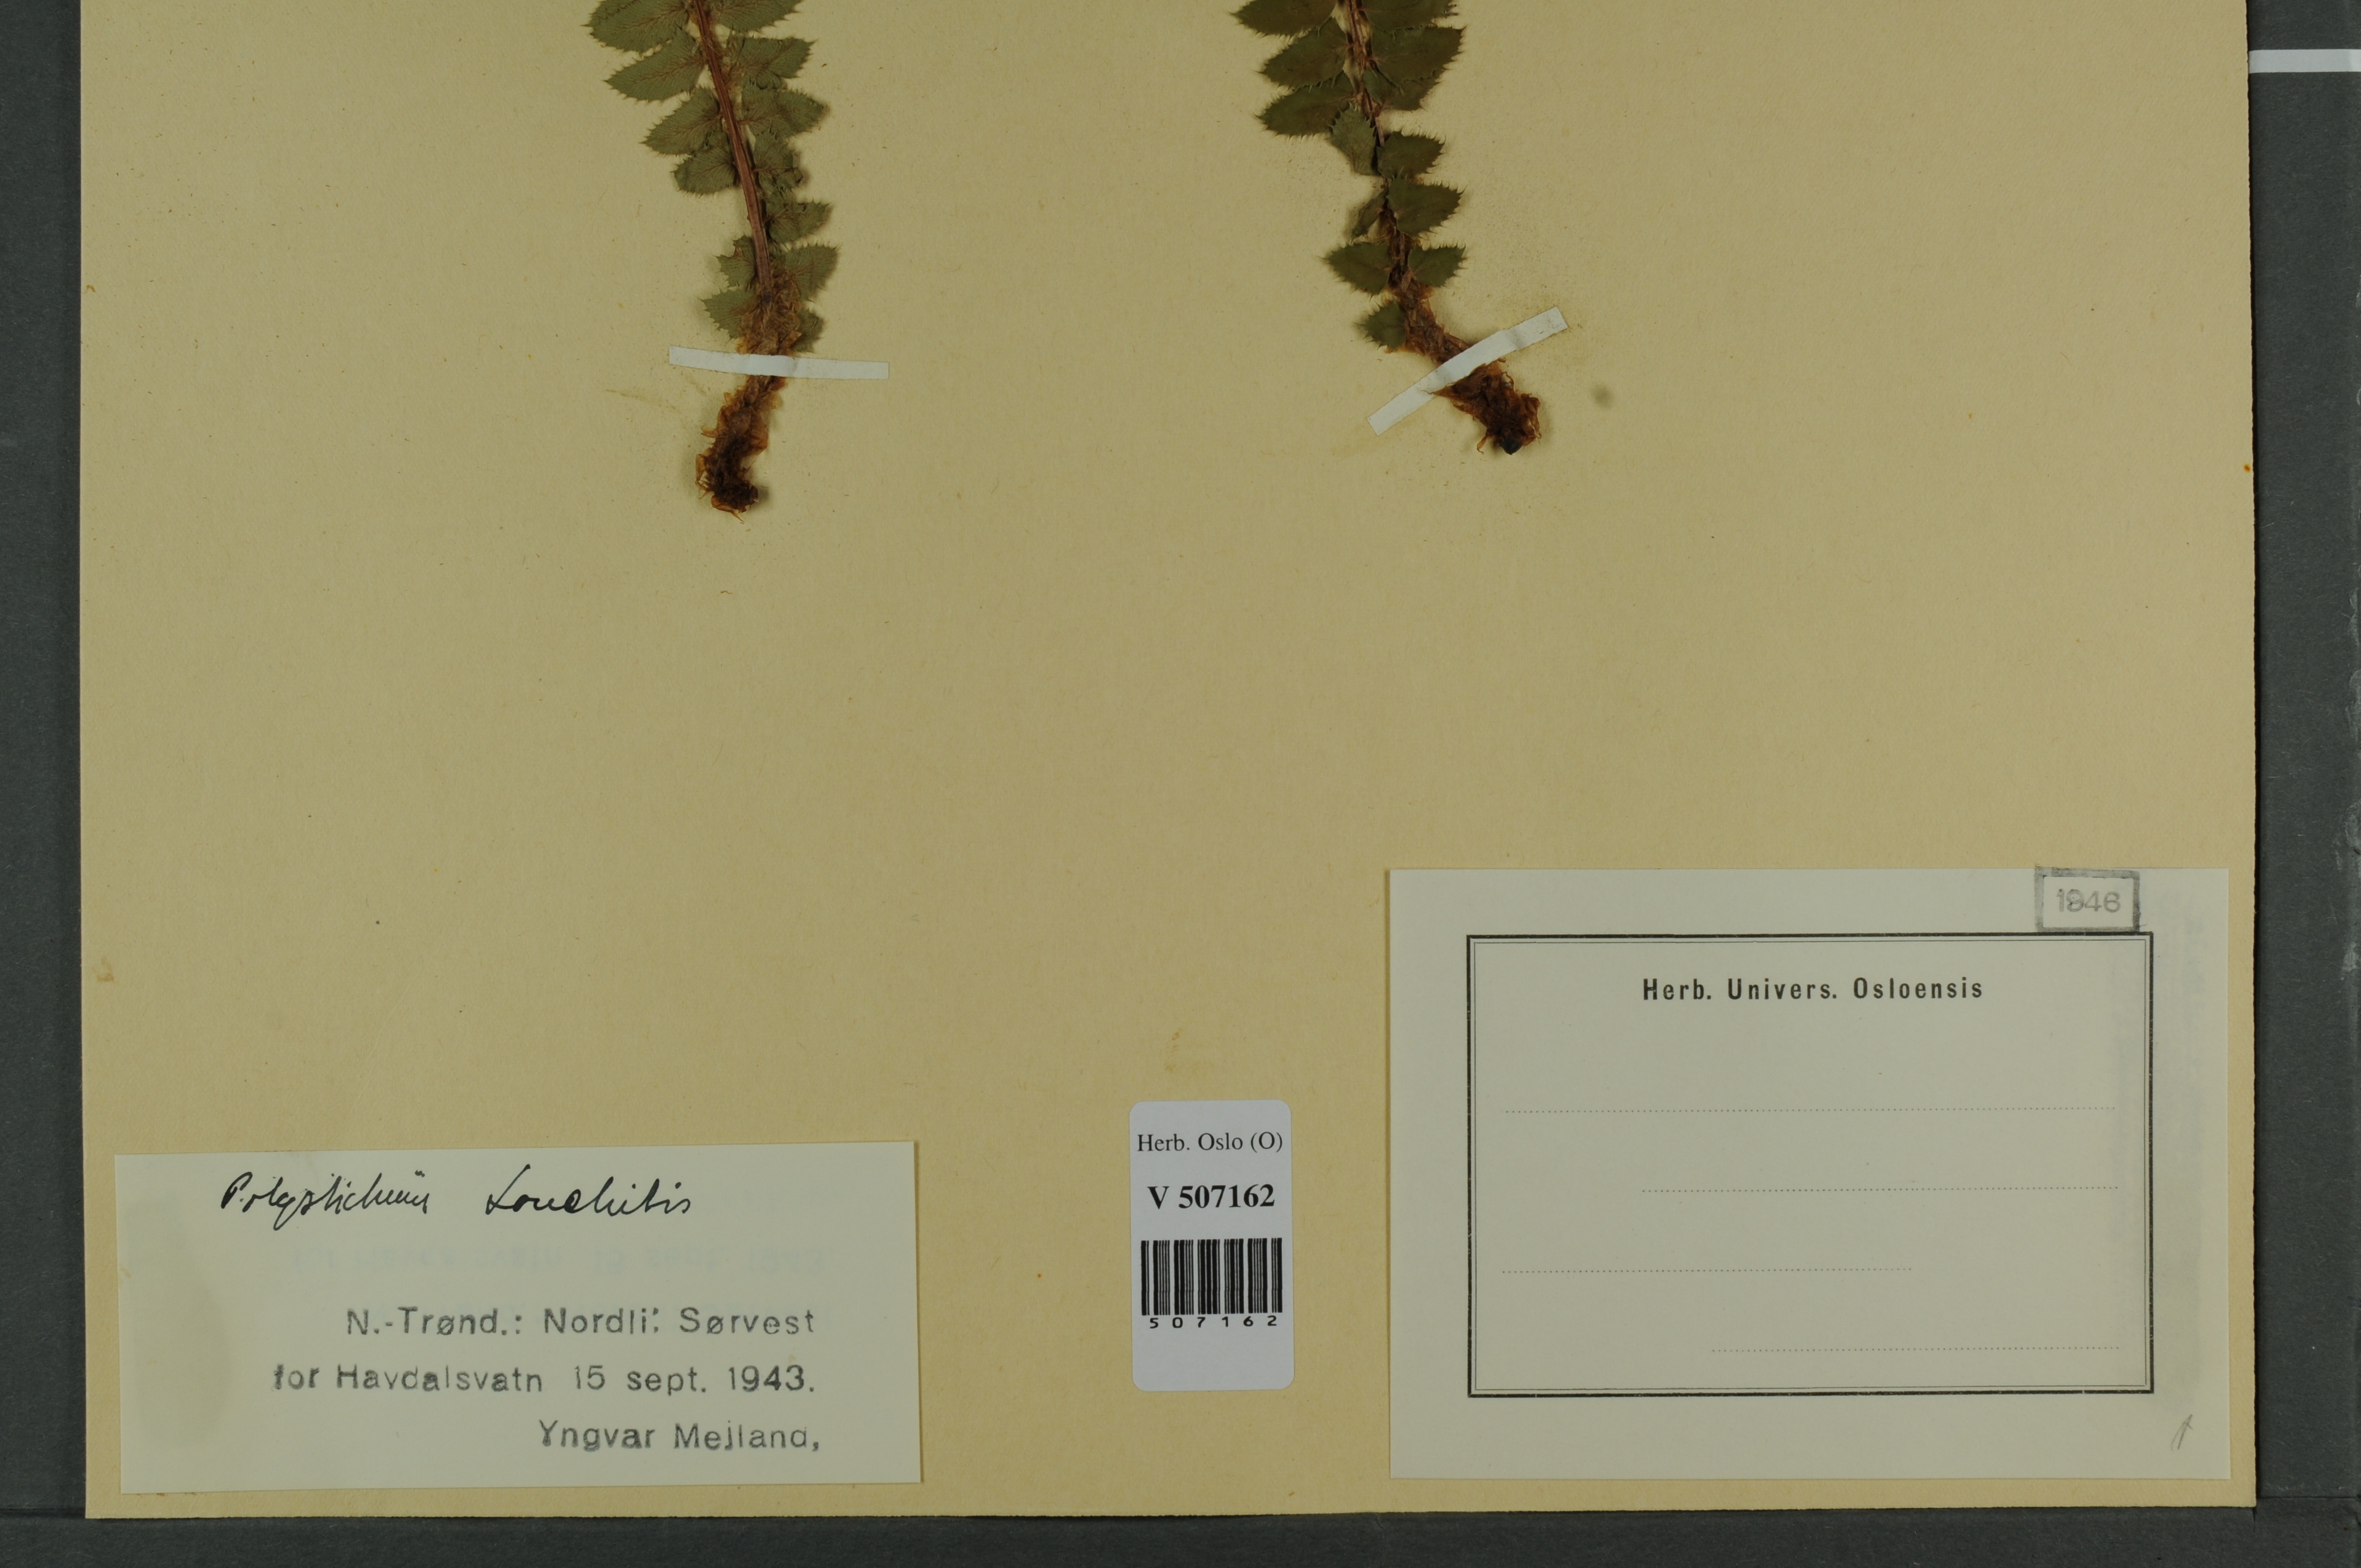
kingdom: Plantae
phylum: Tracheophyta
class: Polypodiopsida
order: Polypodiales
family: Dryopteridaceae
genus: Polystichum
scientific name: Polystichum lonchitis
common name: Holly fern
